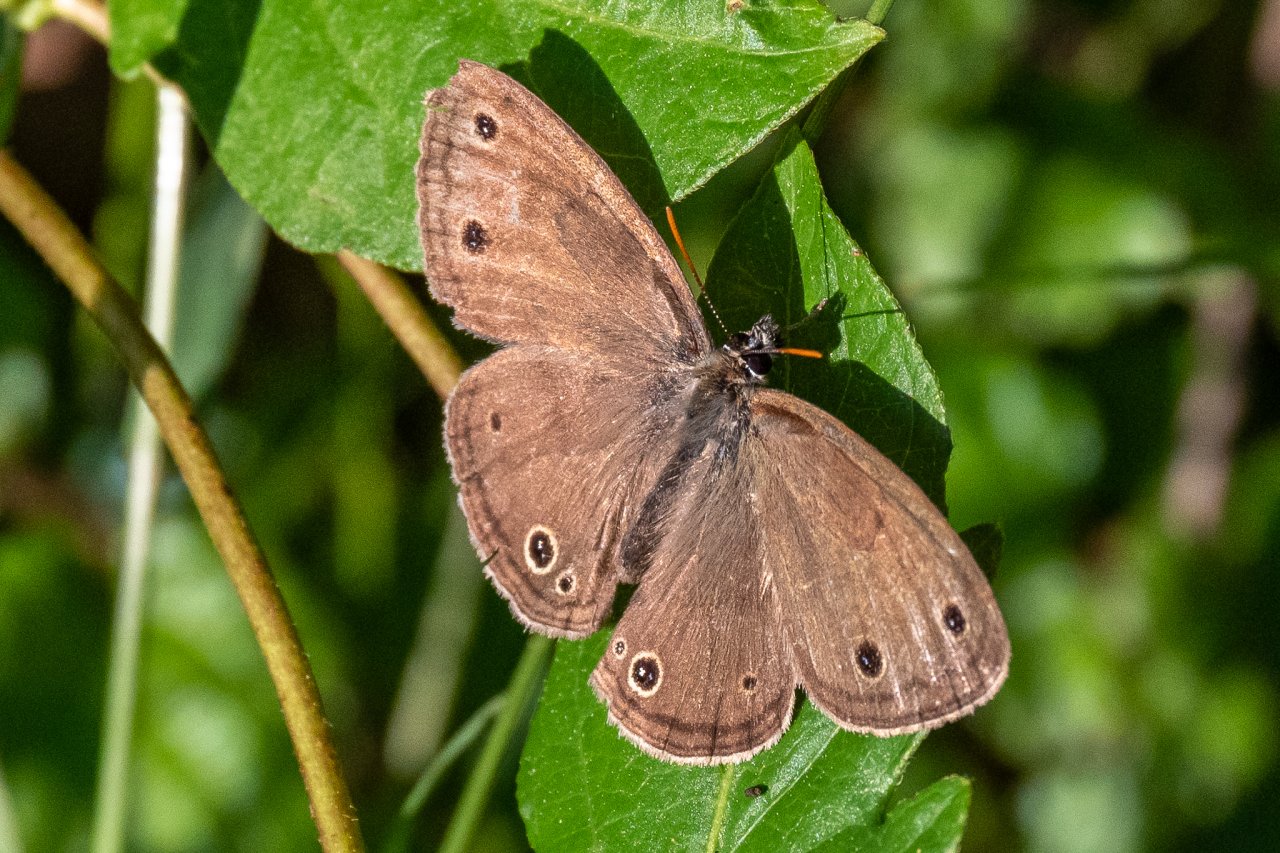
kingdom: Animalia
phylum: Arthropoda
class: Insecta
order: Lepidoptera
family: Nymphalidae
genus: Euptychia
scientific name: Euptychia cymela
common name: Little Wood Satyr
